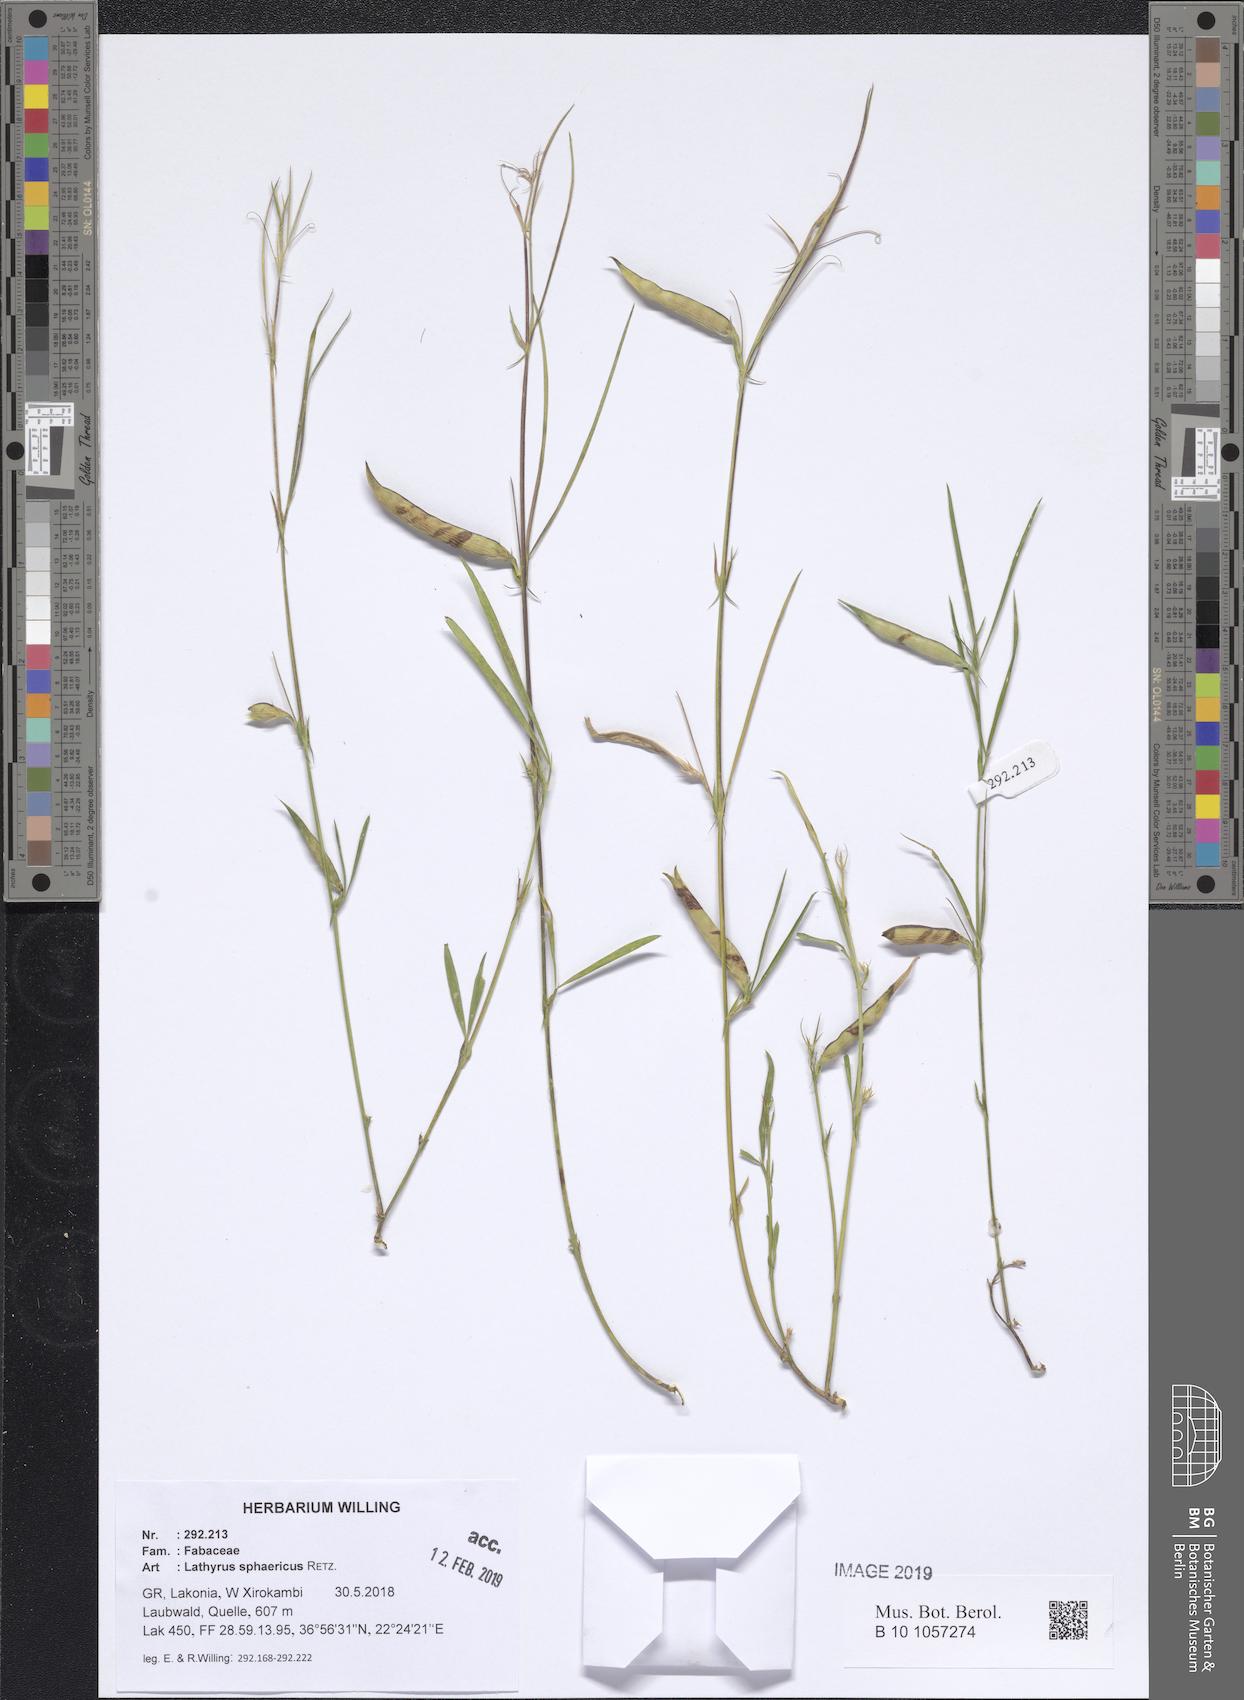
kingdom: Plantae
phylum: Tracheophyta
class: Magnoliopsida
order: Fabales
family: Fabaceae
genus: Lathyrus
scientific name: Lathyrus sphaericus
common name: Grass pea
